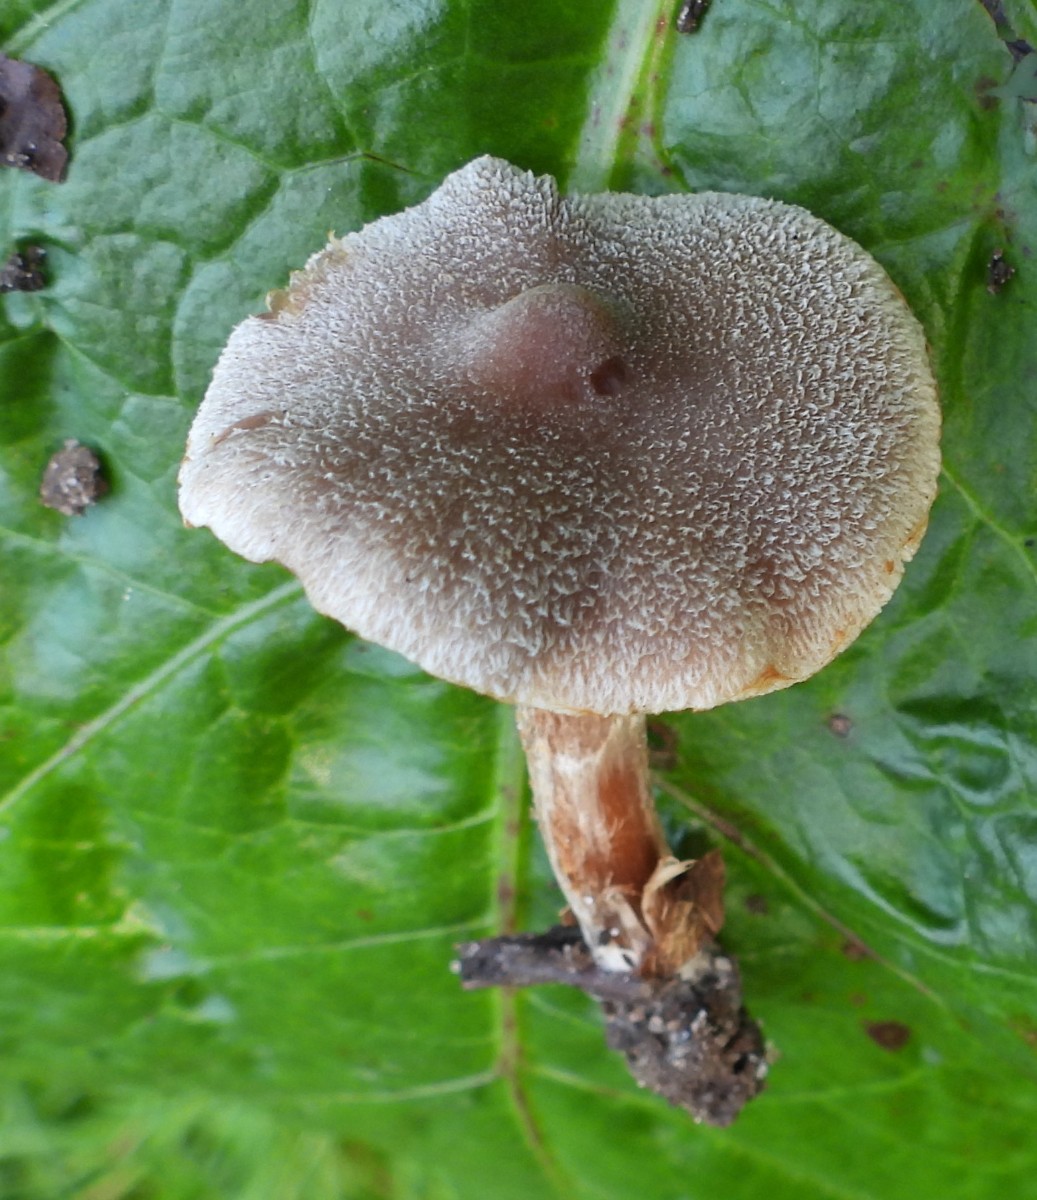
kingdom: Fungi
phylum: Basidiomycota
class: Agaricomycetes
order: Agaricales
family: Cortinariaceae
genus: Cortinarius
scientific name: Cortinarius
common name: pelargonie-slørhat
